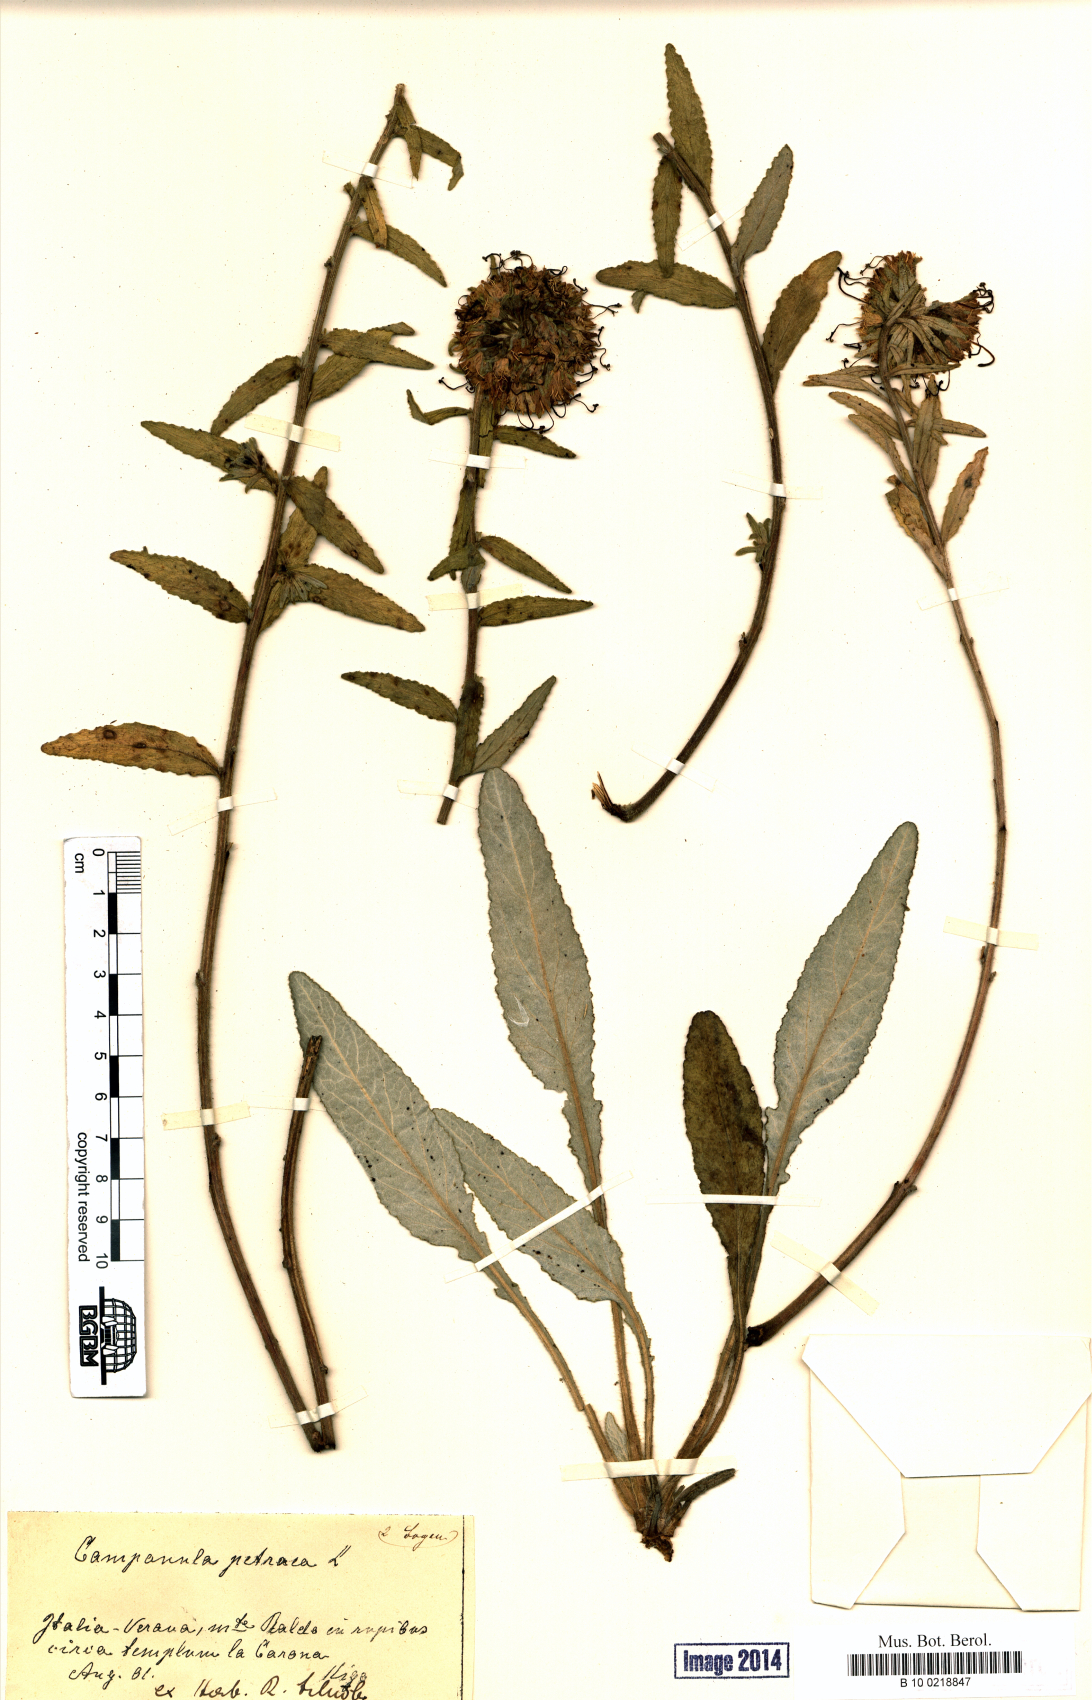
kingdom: Plantae
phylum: Tracheophyta
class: Magnoliopsida
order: Asterales
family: Campanulaceae
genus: Campanula
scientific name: Campanula petraea
